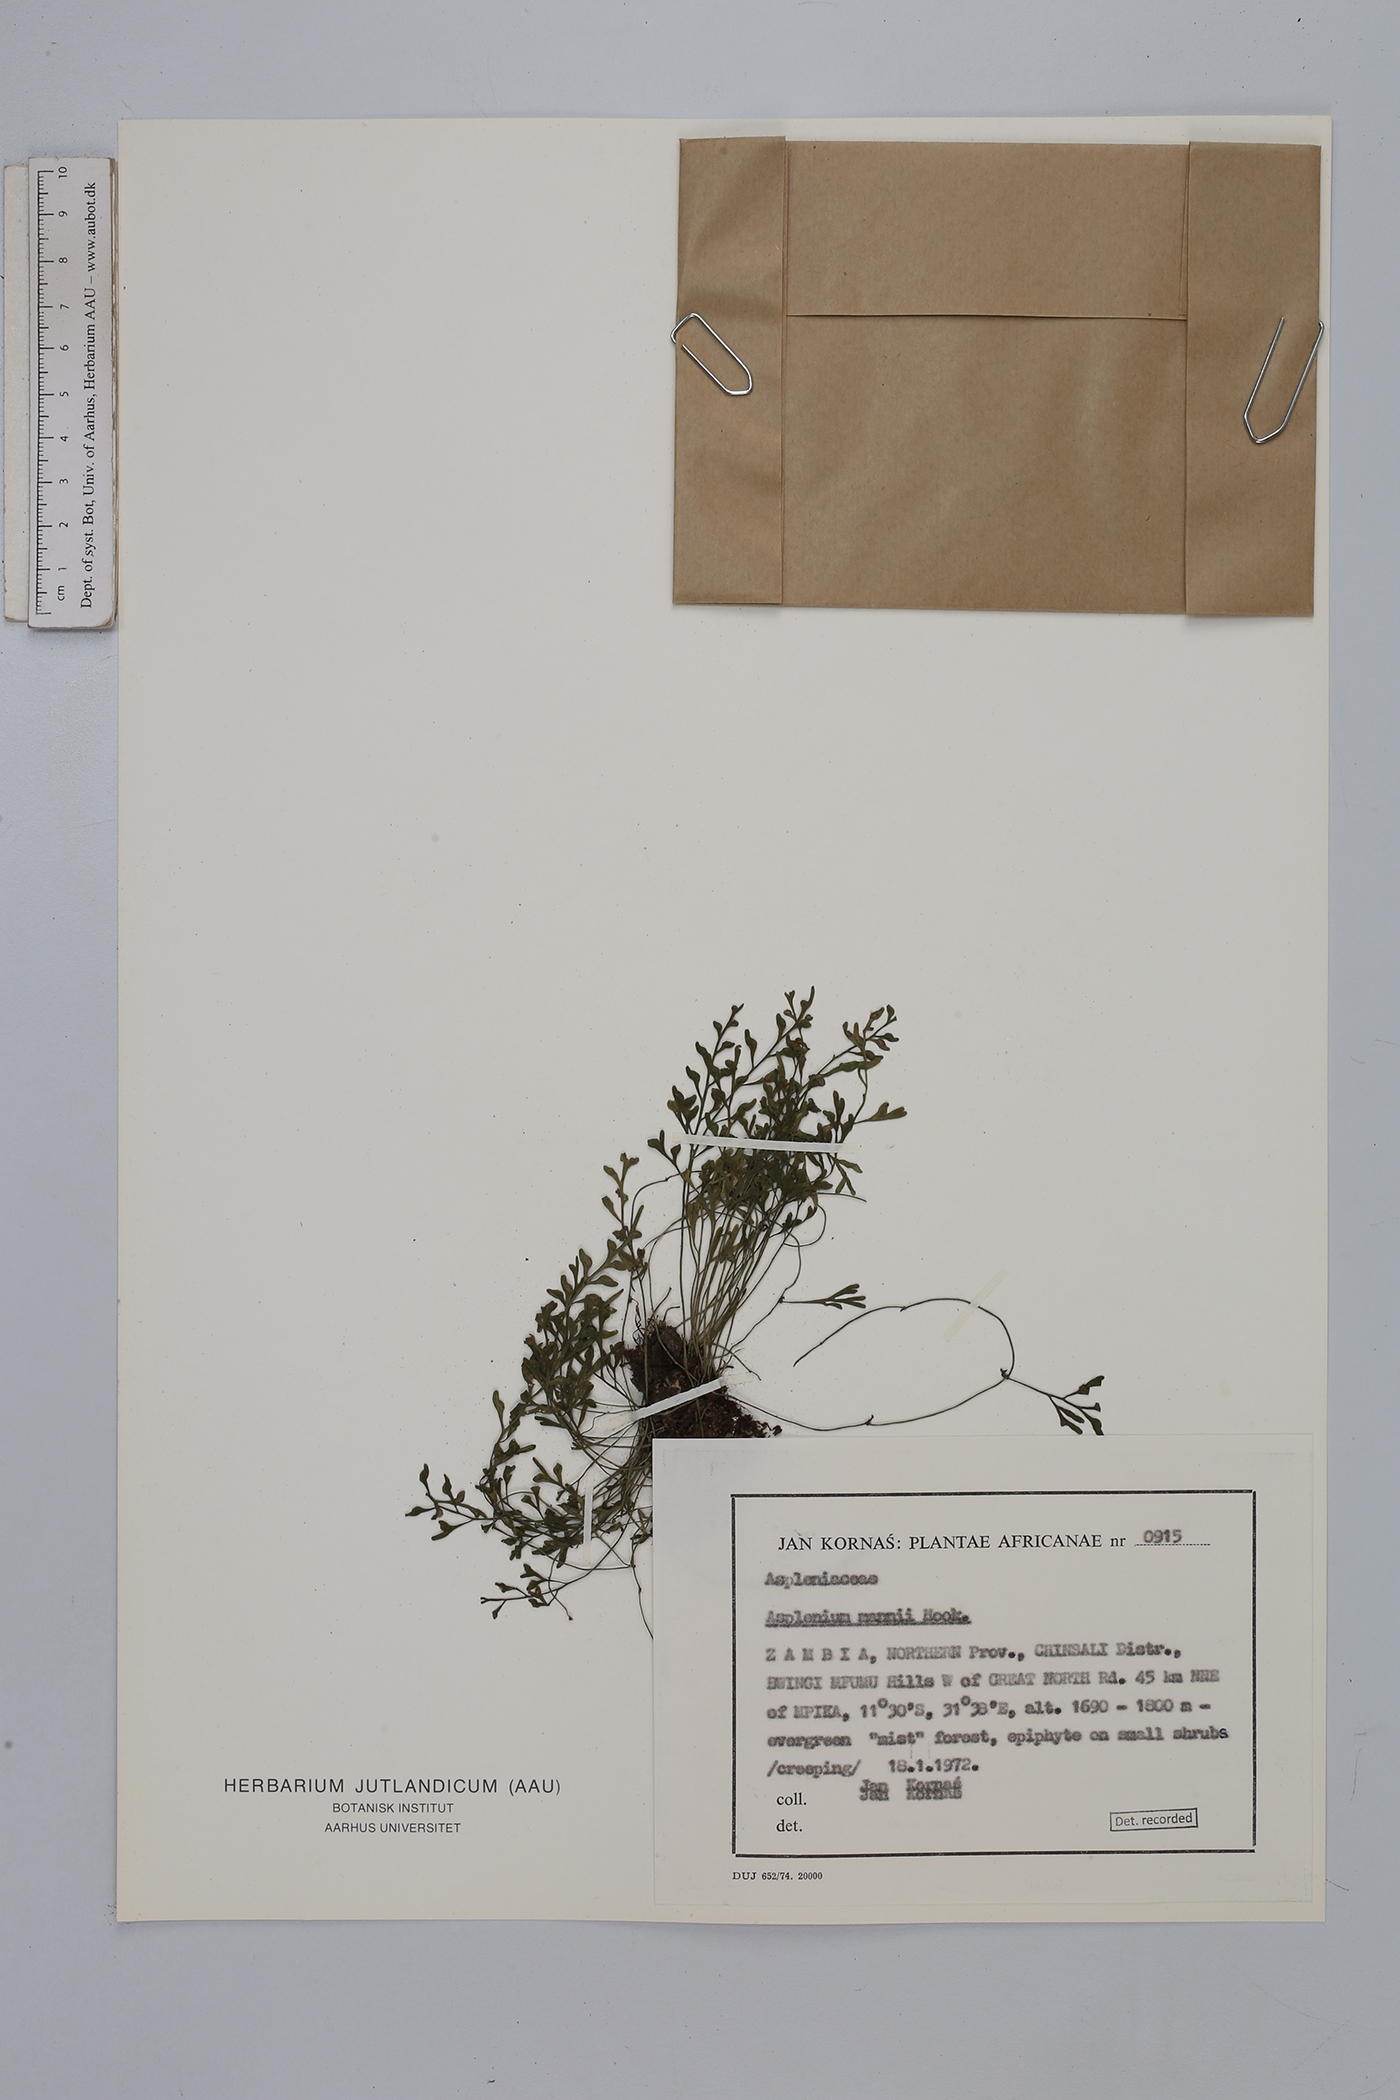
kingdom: Plantae
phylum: Tracheophyta
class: Polypodiopsida
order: Polypodiales
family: Aspleniaceae
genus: Asplenium
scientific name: Asplenium mannii
